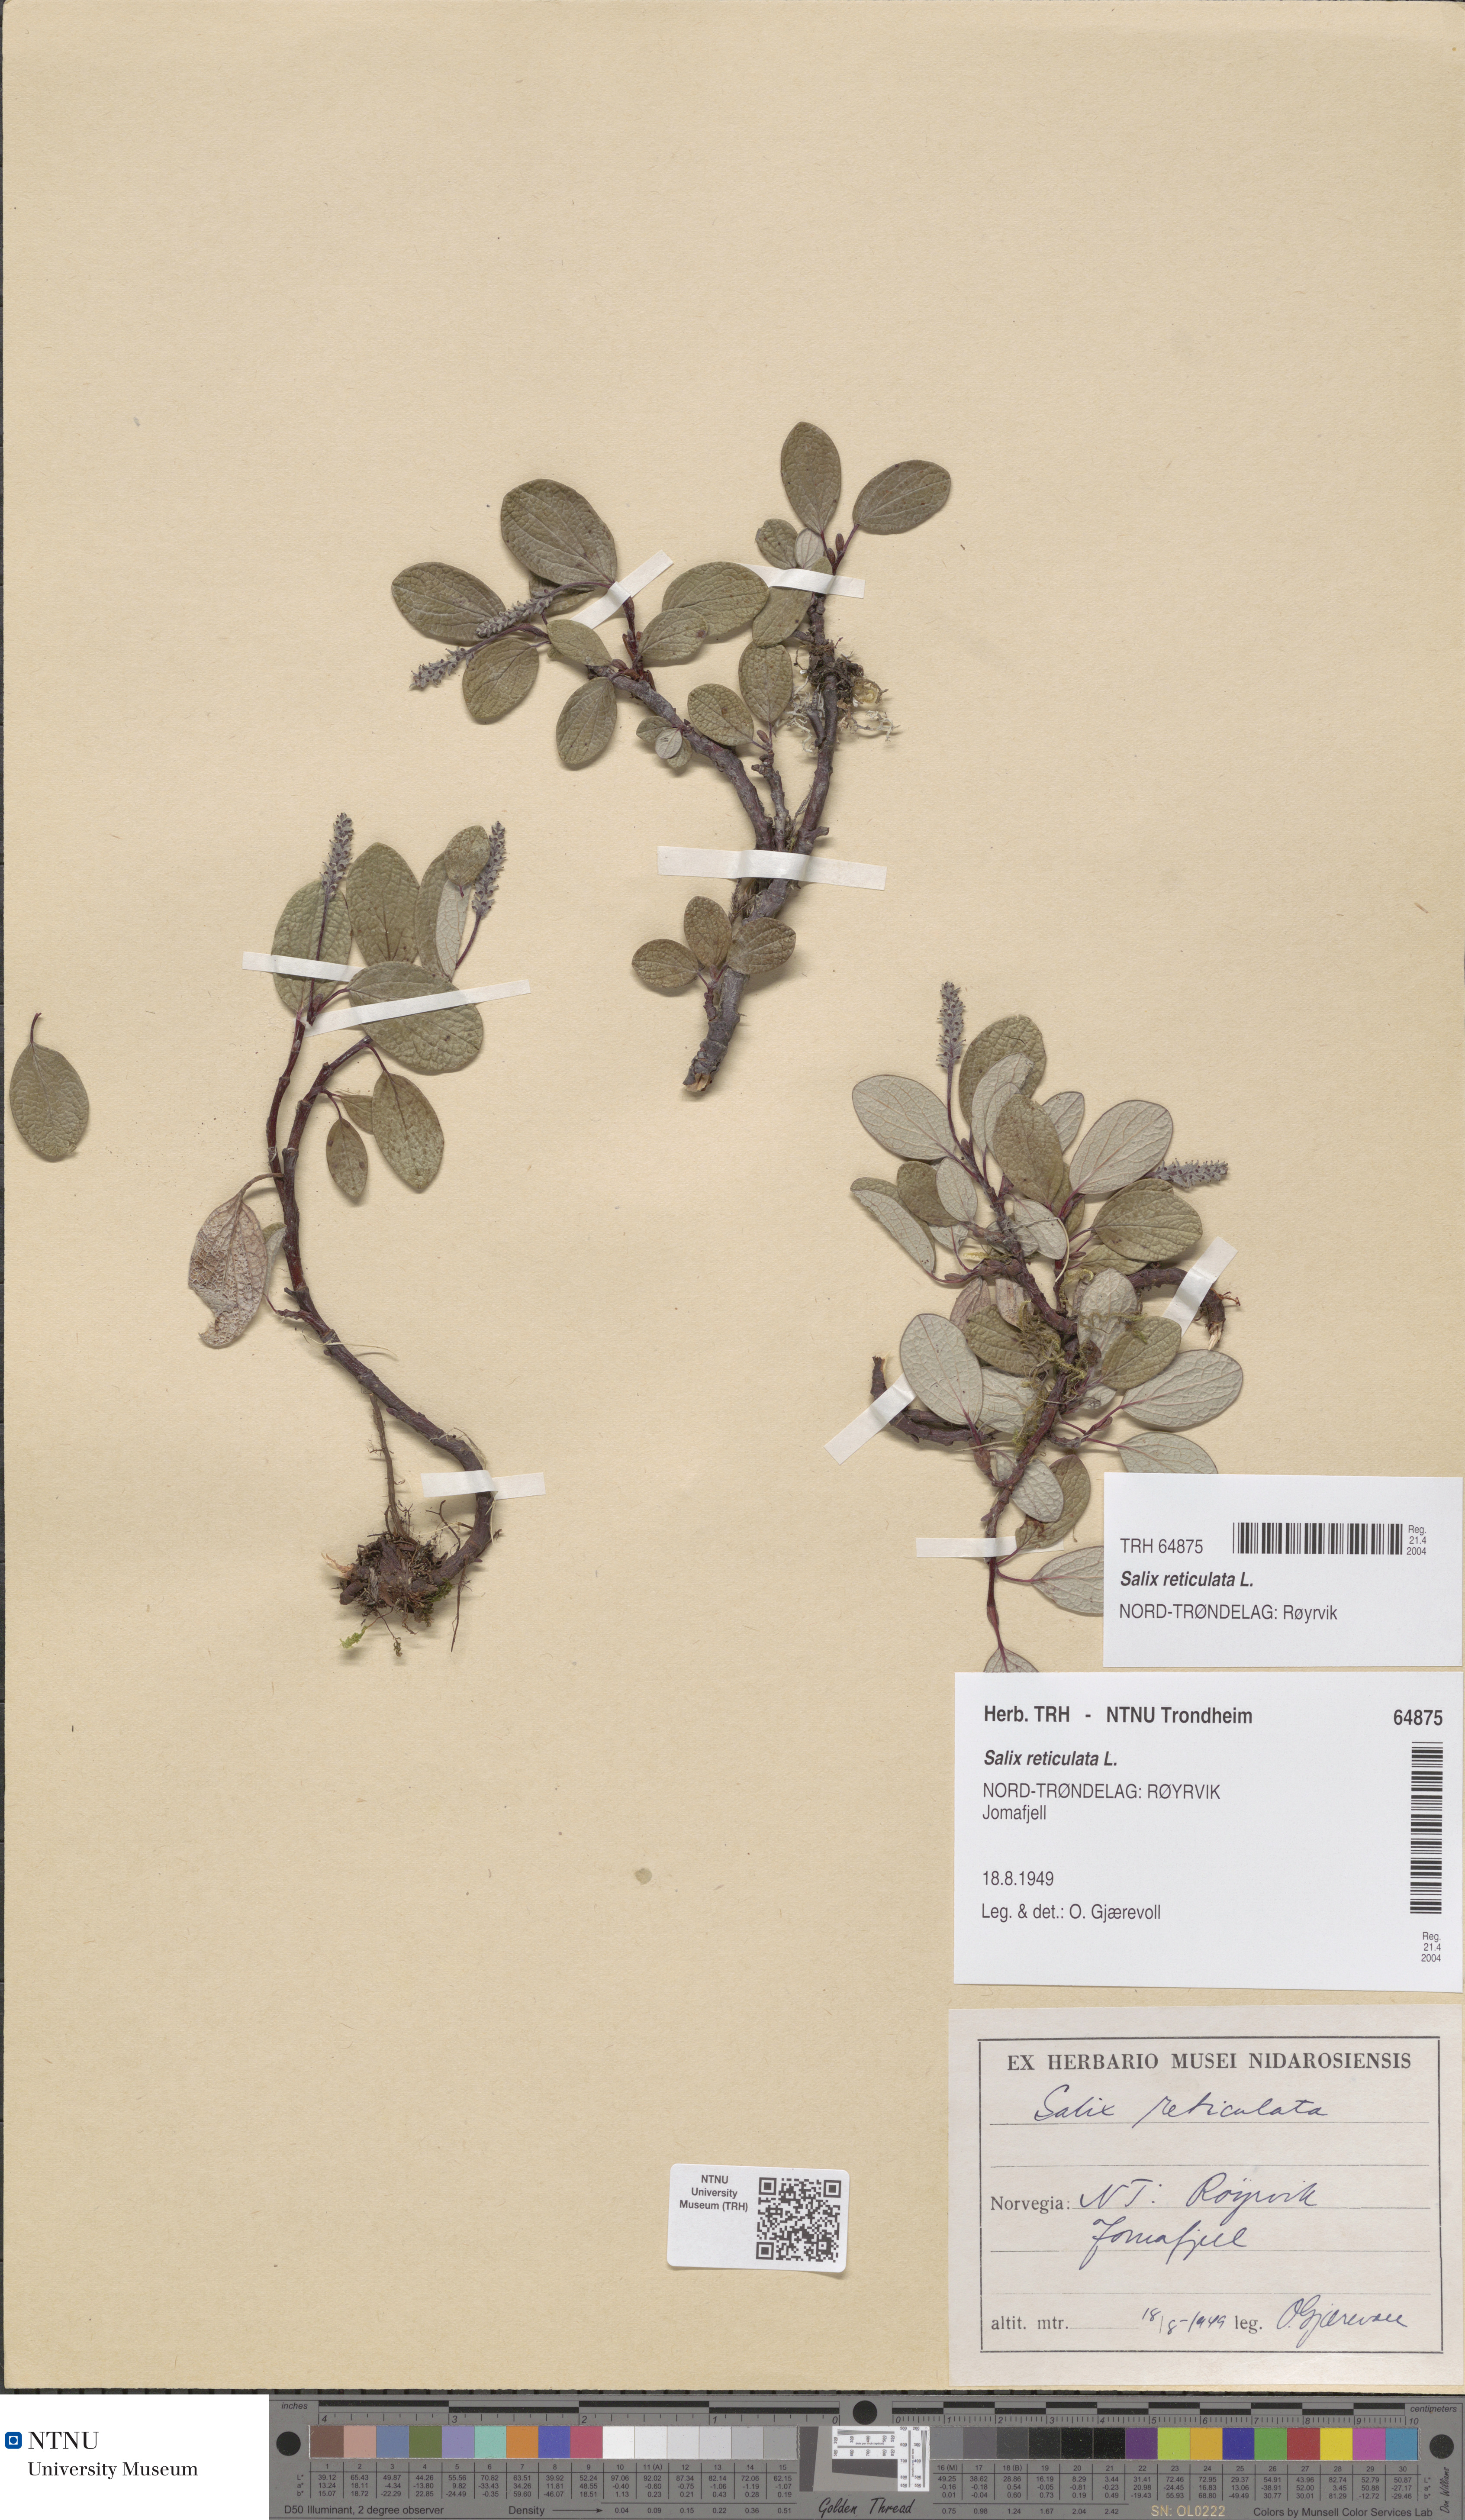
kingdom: Plantae
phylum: Tracheophyta
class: Magnoliopsida
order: Malpighiales
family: Salicaceae
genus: Salix
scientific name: Salix reticulata
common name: Net-leaved willow
